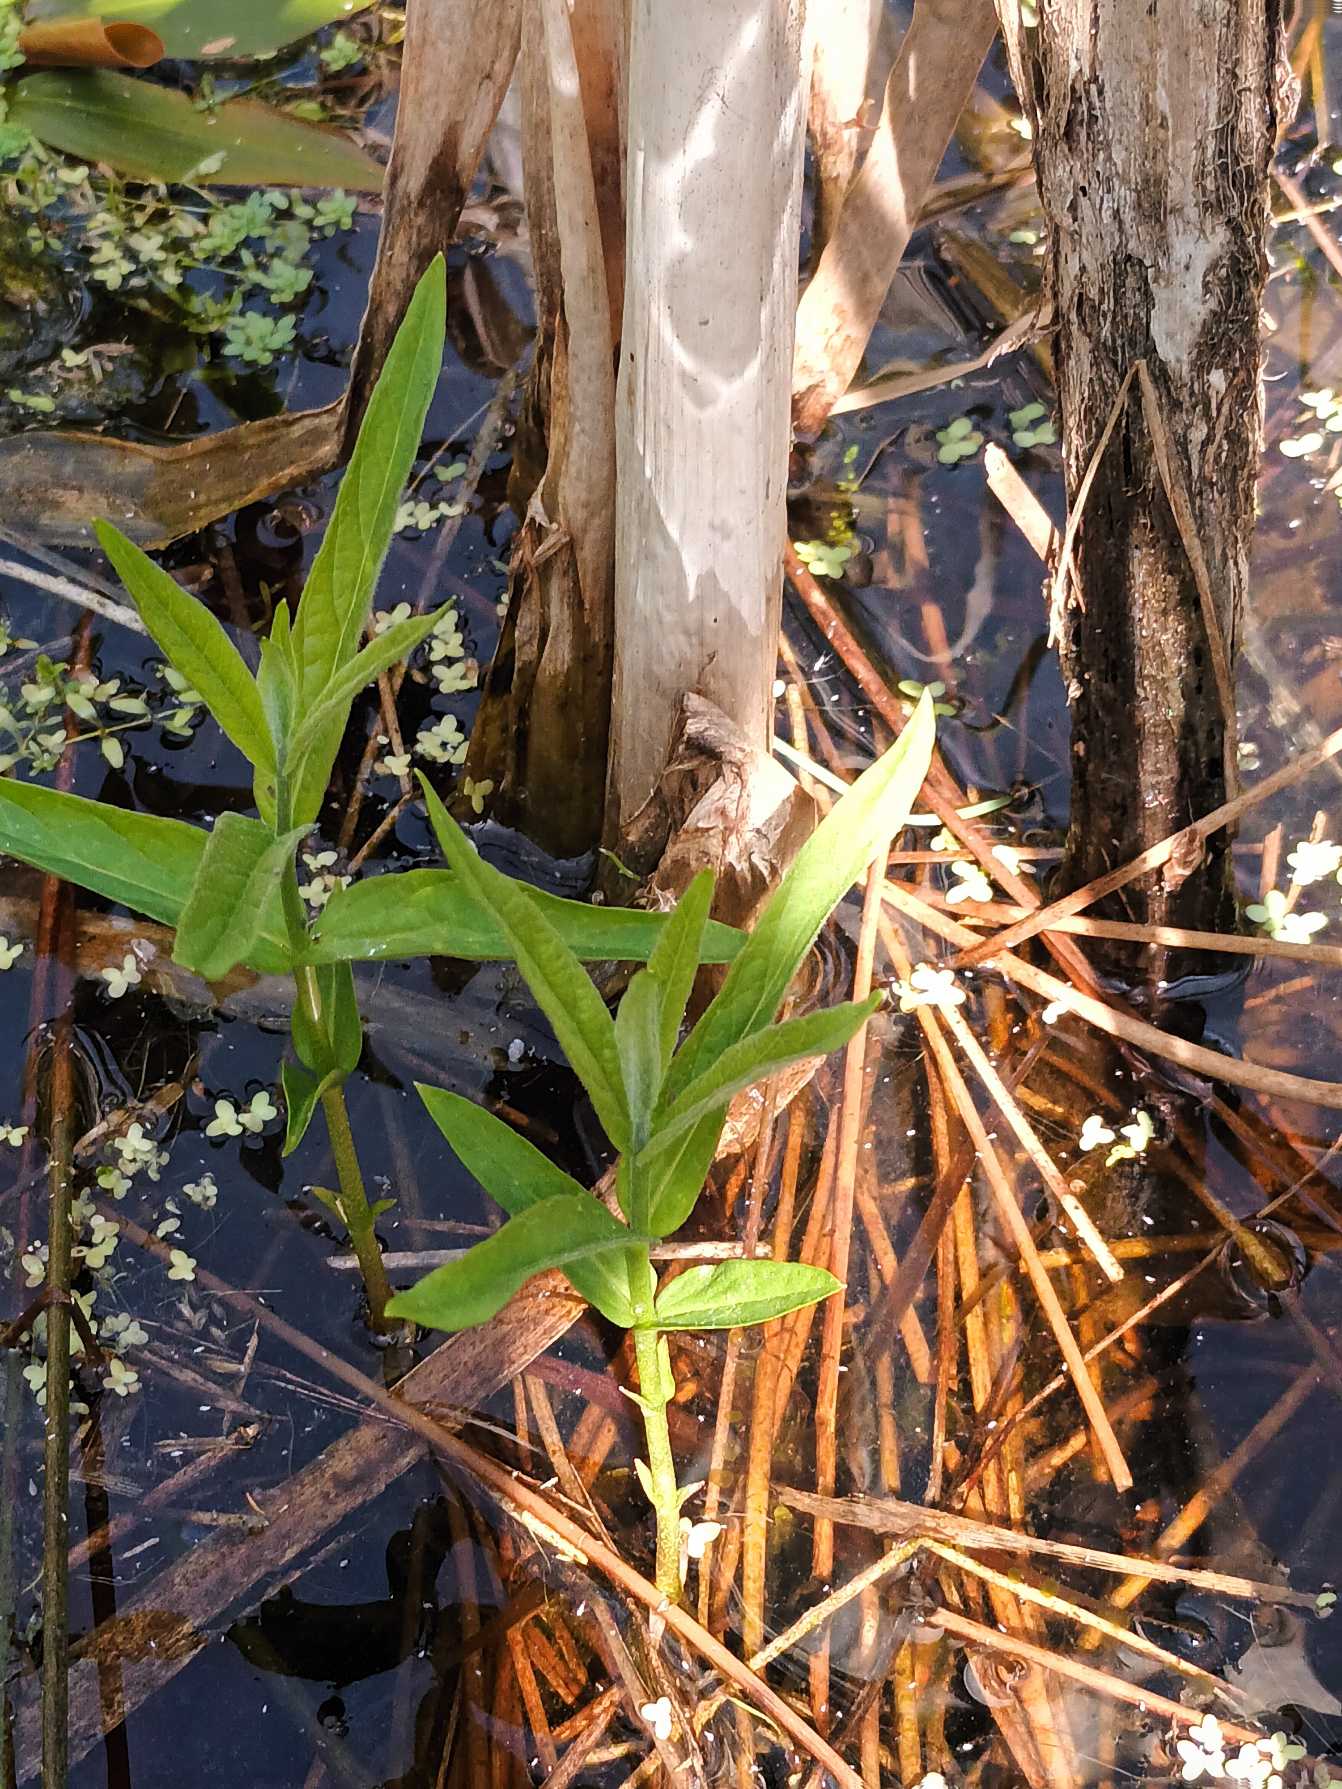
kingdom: Plantae
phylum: Tracheophyta
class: Magnoliopsida
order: Ericales
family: Primulaceae
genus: Lysimachia
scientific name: Lysimachia thyrsiflora
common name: Dusk-fredløs
